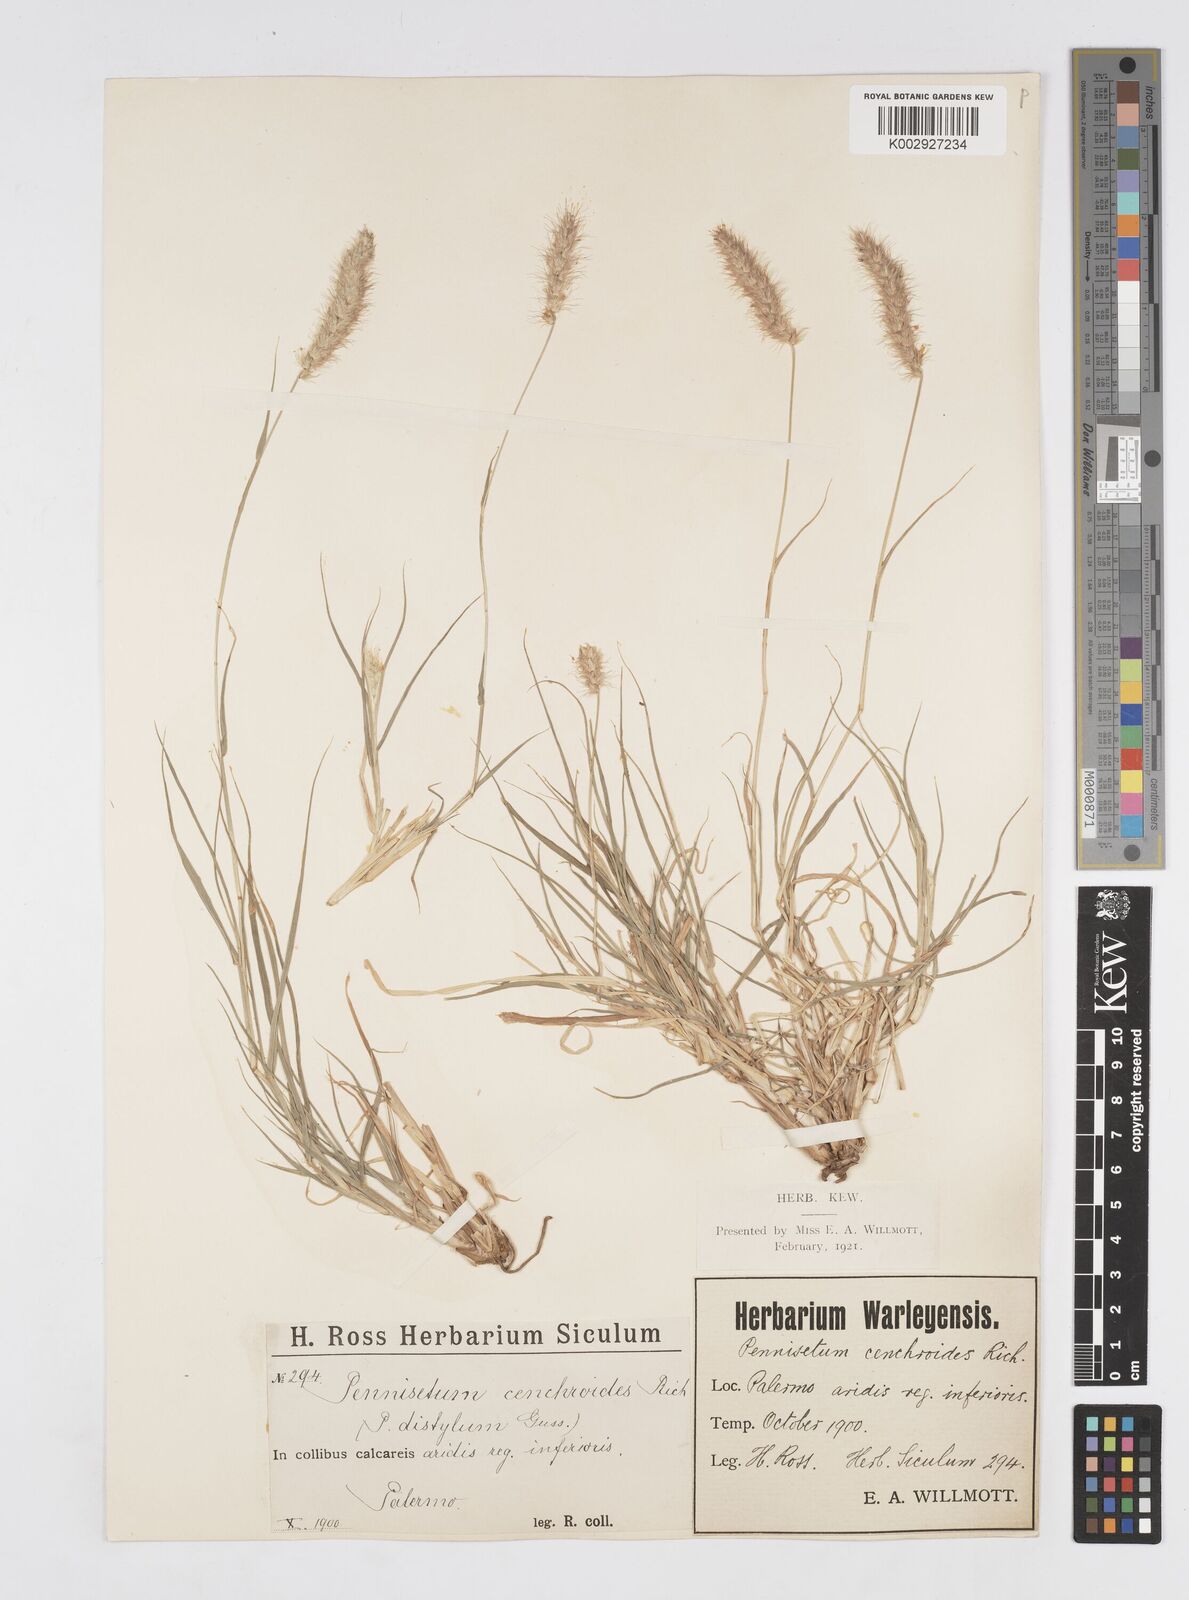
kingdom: Plantae
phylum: Tracheophyta
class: Liliopsida
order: Poales
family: Poaceae
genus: Cenchrus
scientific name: Cenchrus ciliaris
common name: Buffelgrass
